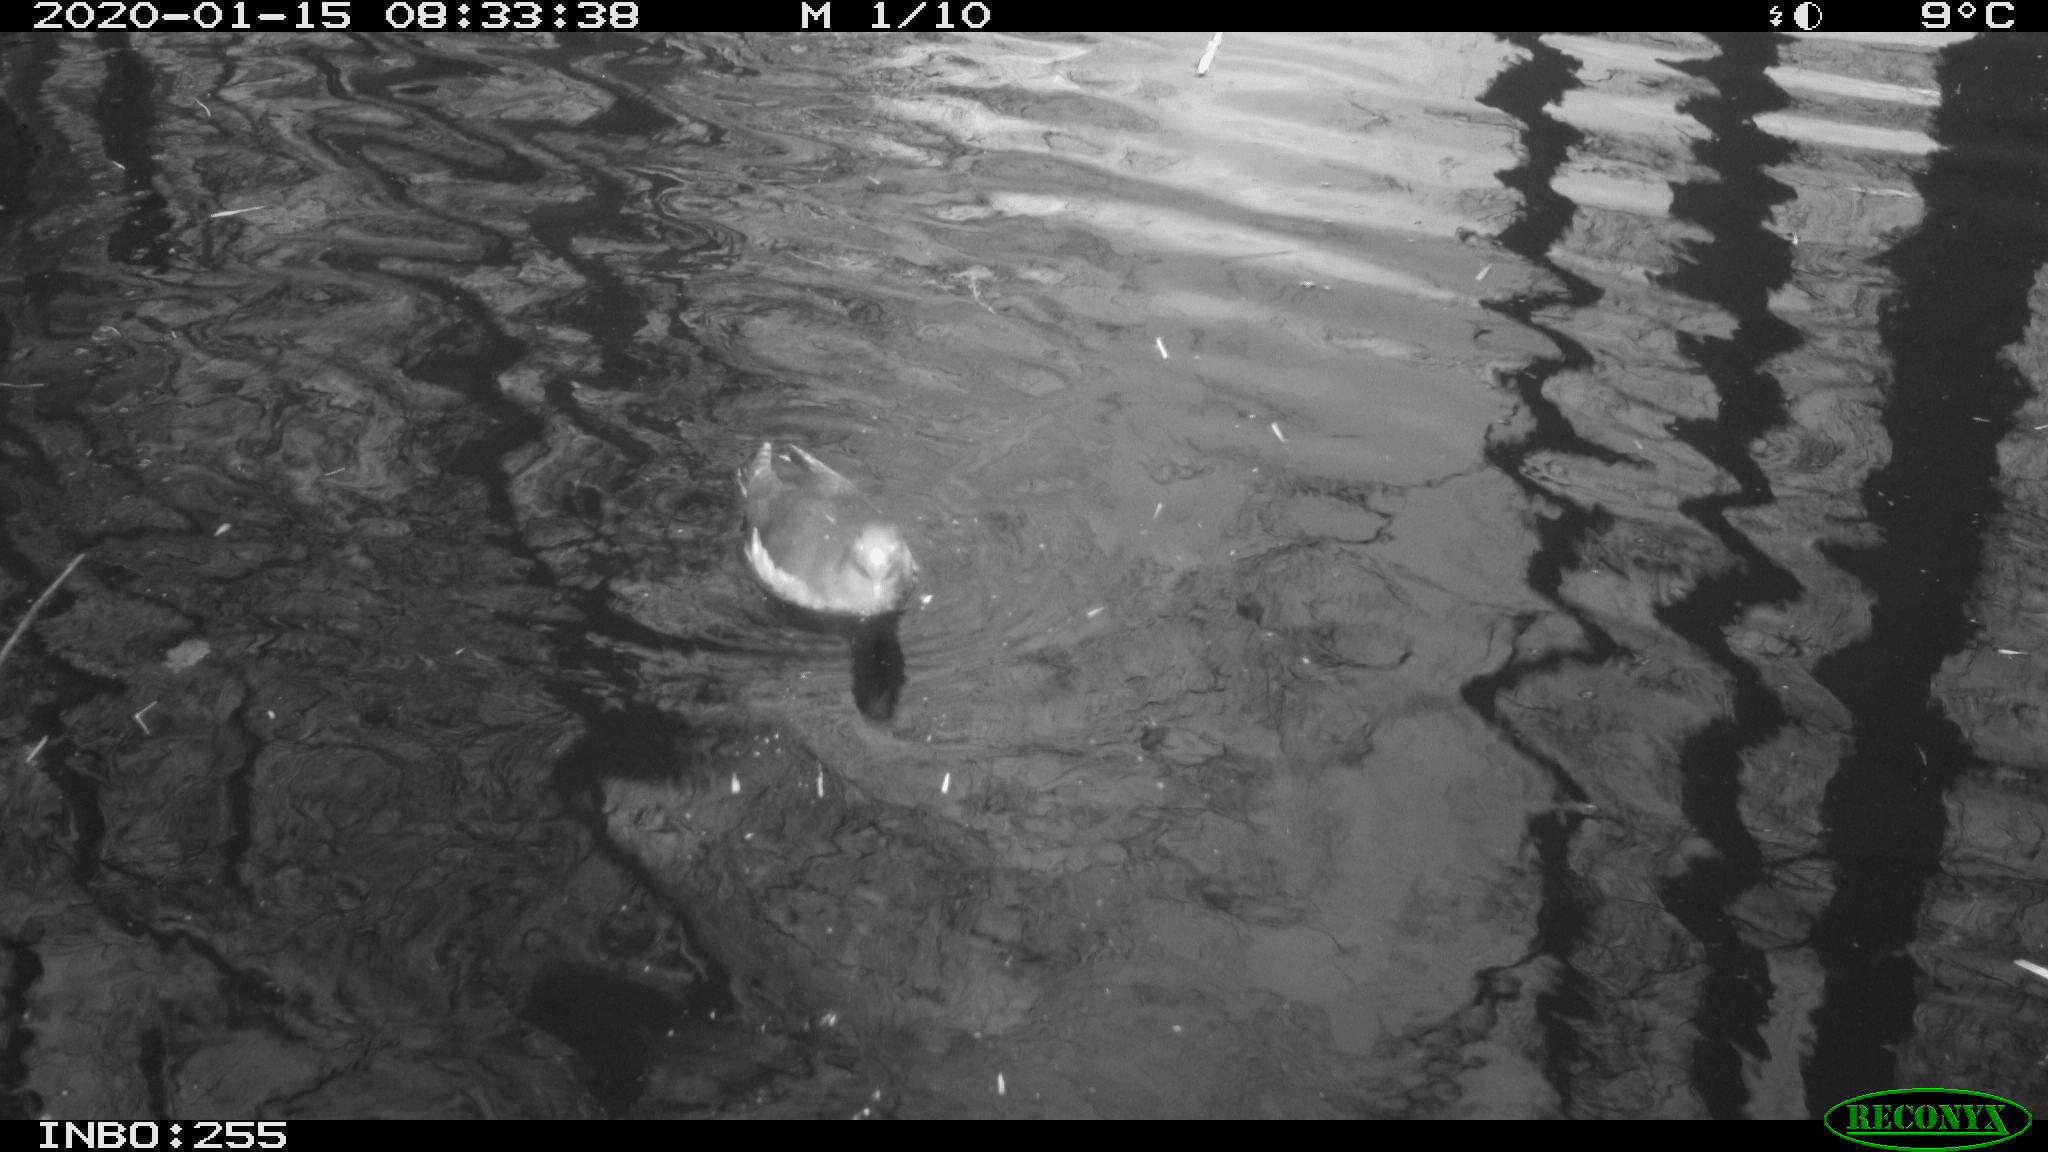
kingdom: Animalia
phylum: Chordata
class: Aves
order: Gruiformes
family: Rallidae
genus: Gallinula
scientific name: Gallinula chloropus
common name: Common moorhen
